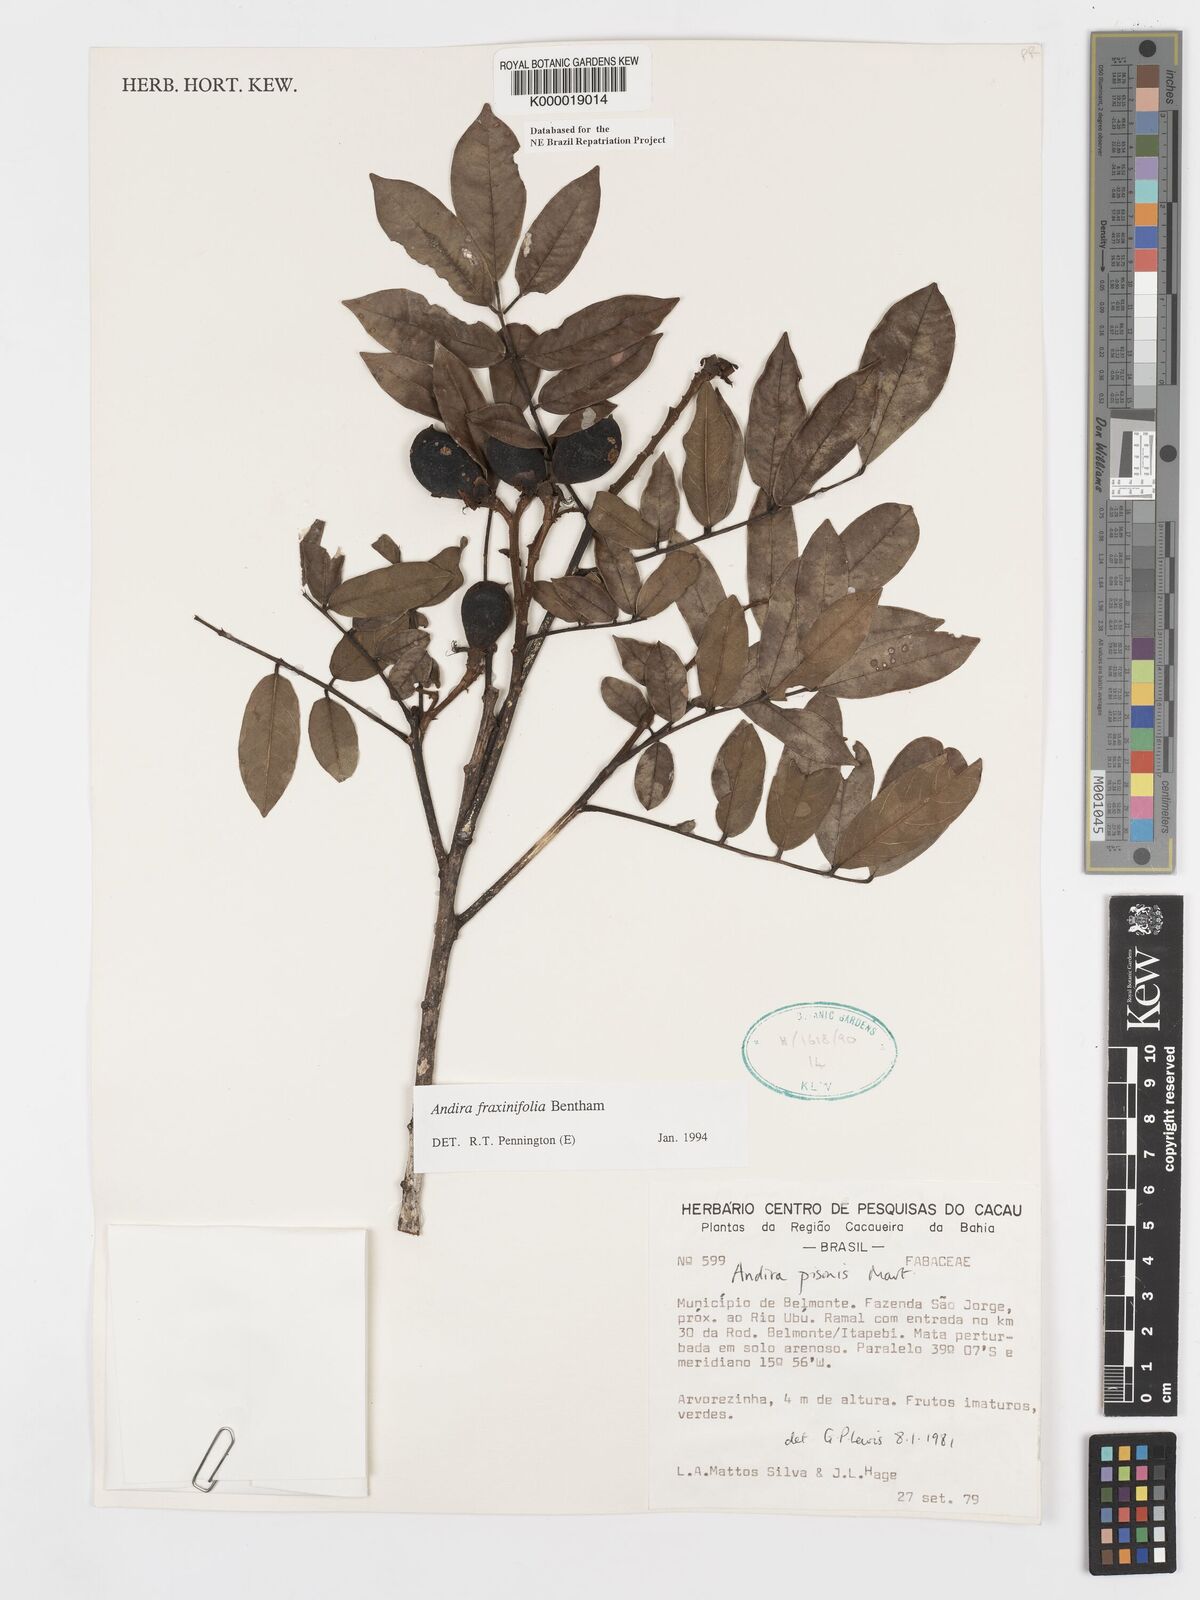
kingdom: Plantae
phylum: Tracheophyta
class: Magnoliopsida
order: Fabales
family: Fabaceae
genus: Andira
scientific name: Andira fraxinifolia
